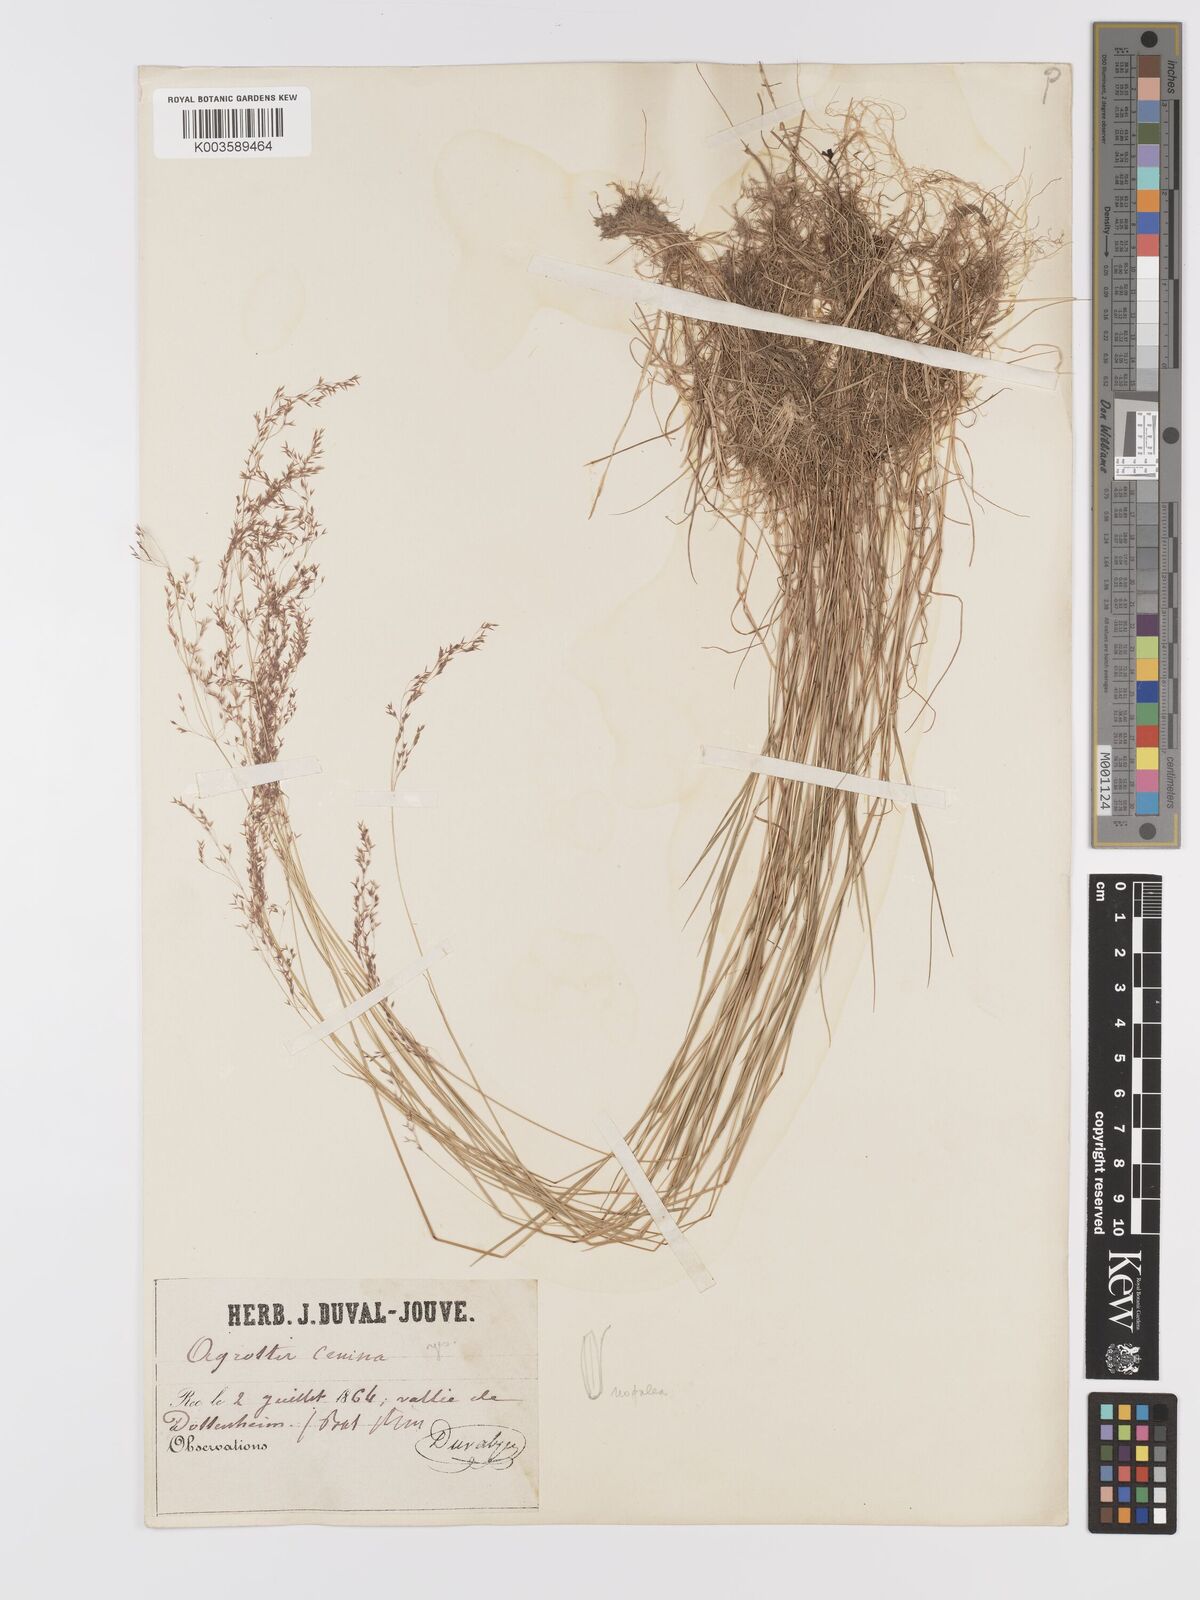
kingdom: Plantae
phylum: Tracheophyta
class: Liliopsida
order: Poales
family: Poaceae
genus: Agrostis
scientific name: Agrostis canina
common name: Velvet bent
